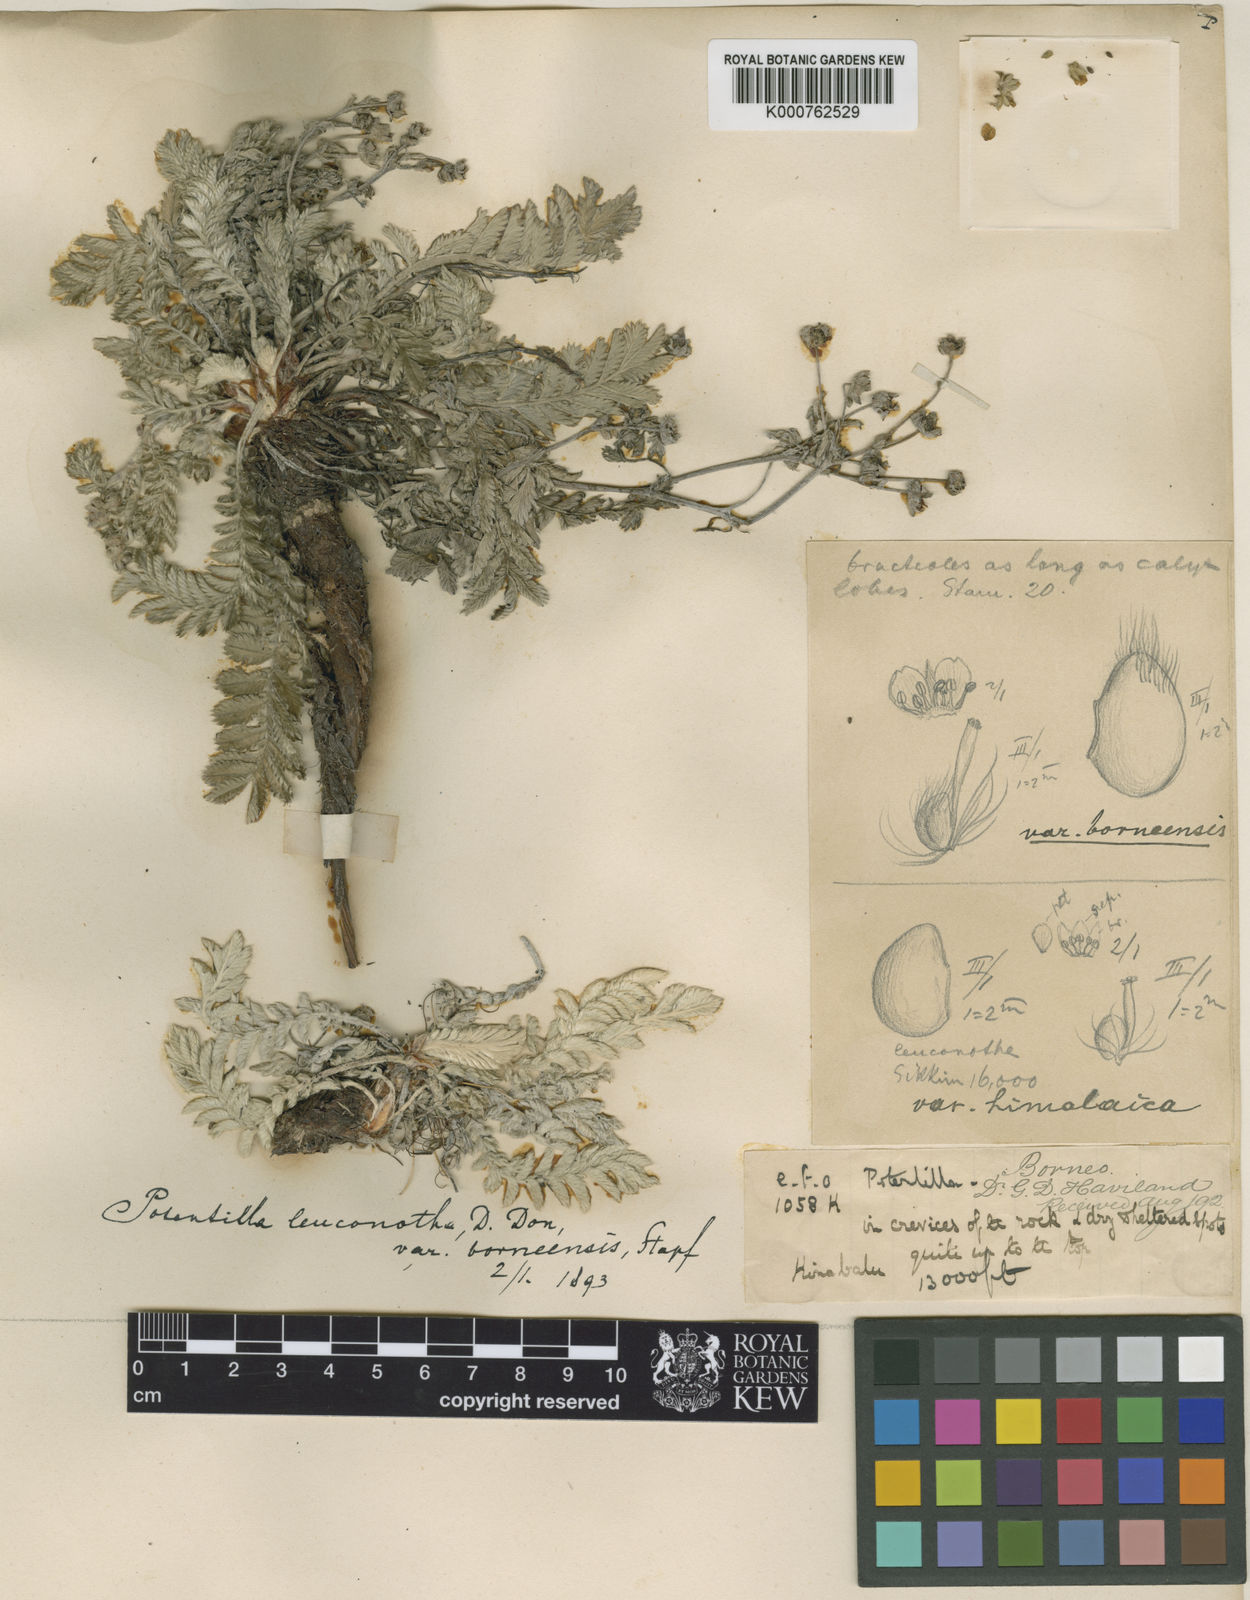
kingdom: Plantae
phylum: Tracheophyta
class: Magnoliopsida
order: Rosales
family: Rosaceae
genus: Argentina
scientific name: Argentina borneensis
